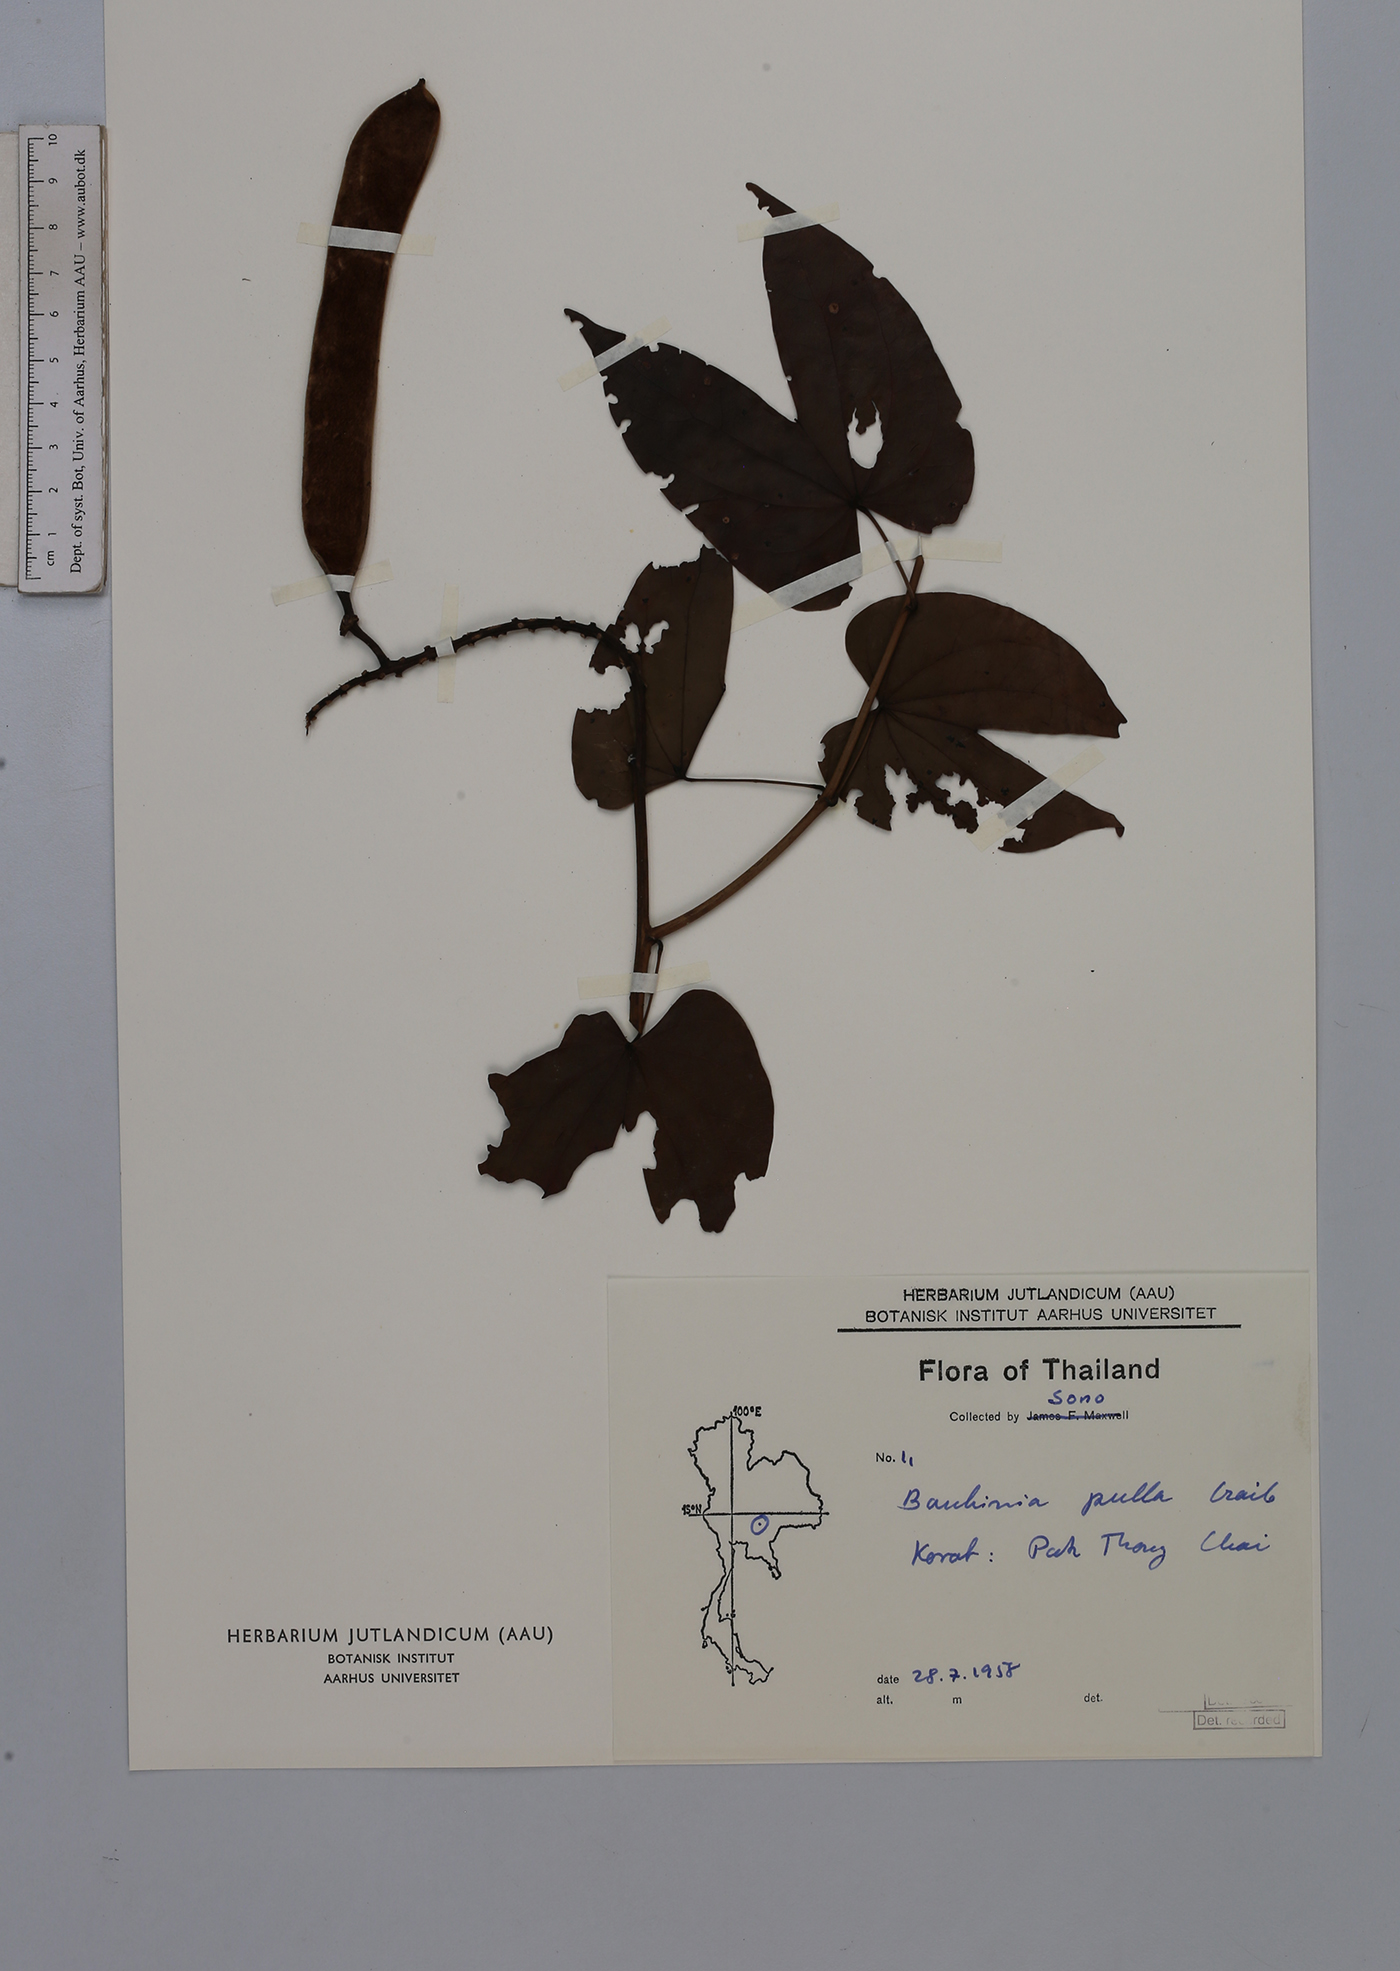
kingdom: Plantae
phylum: Tracheophyta
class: Magnoliopsida
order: Fabales
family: Fabaceae
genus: Phanera
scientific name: Phanera pulla
